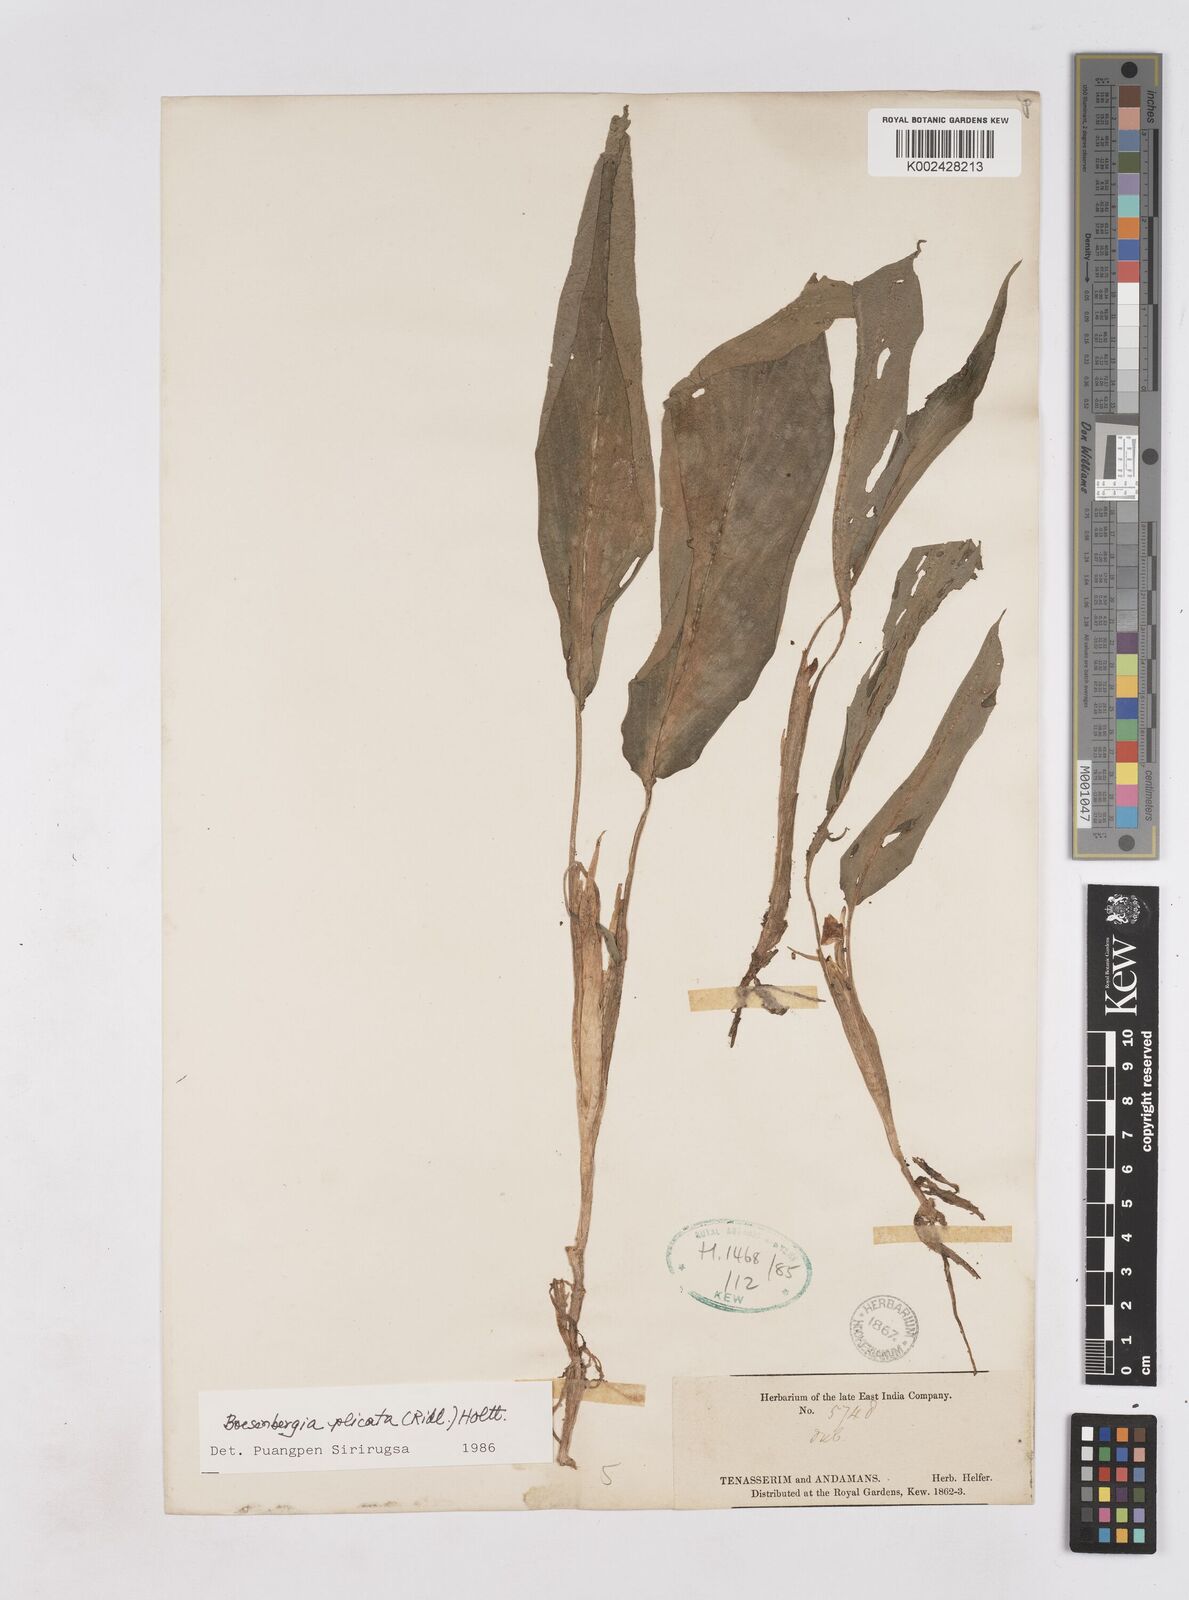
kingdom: Plantae
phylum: Tracheophyta
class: Liliopsida
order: Zingiberales
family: Zingiberaceae
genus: Boesenbergia
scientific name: Boesenbergia plicata
